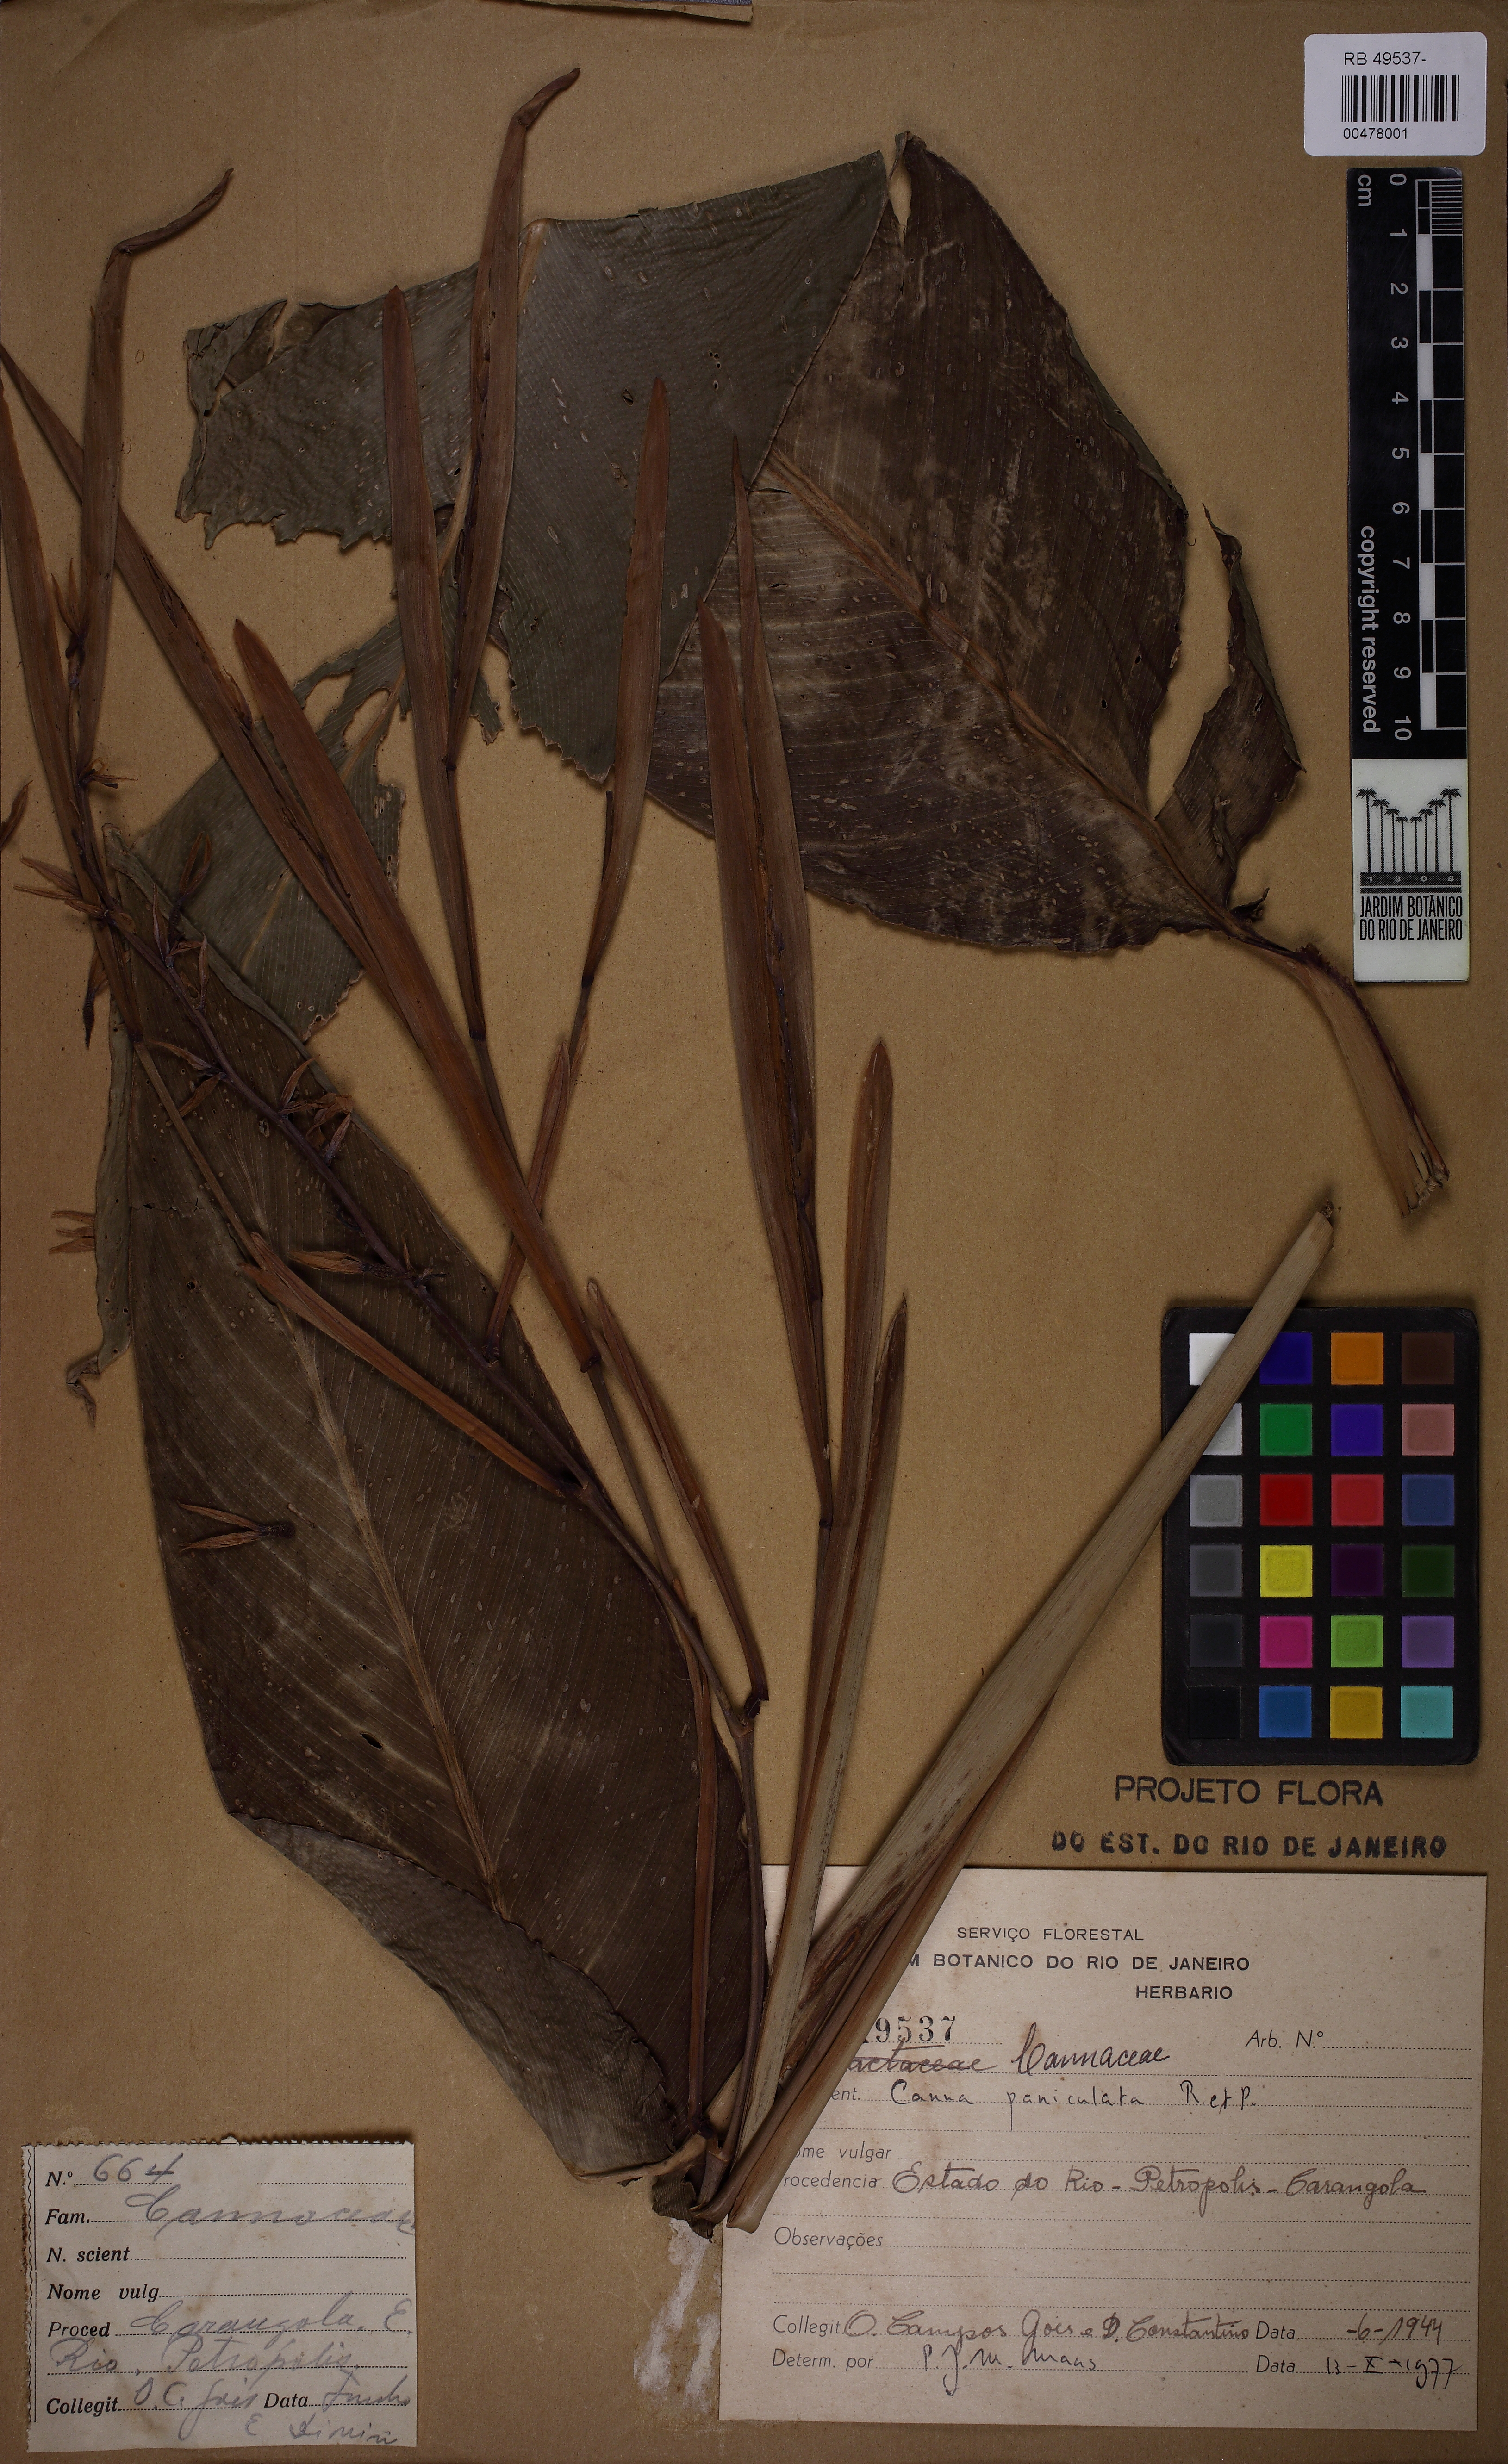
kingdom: Plantae
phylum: Tracheophyta
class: Liliopsida
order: Zingiberales
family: Cannaceae
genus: Canna
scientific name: Canna paniculata
